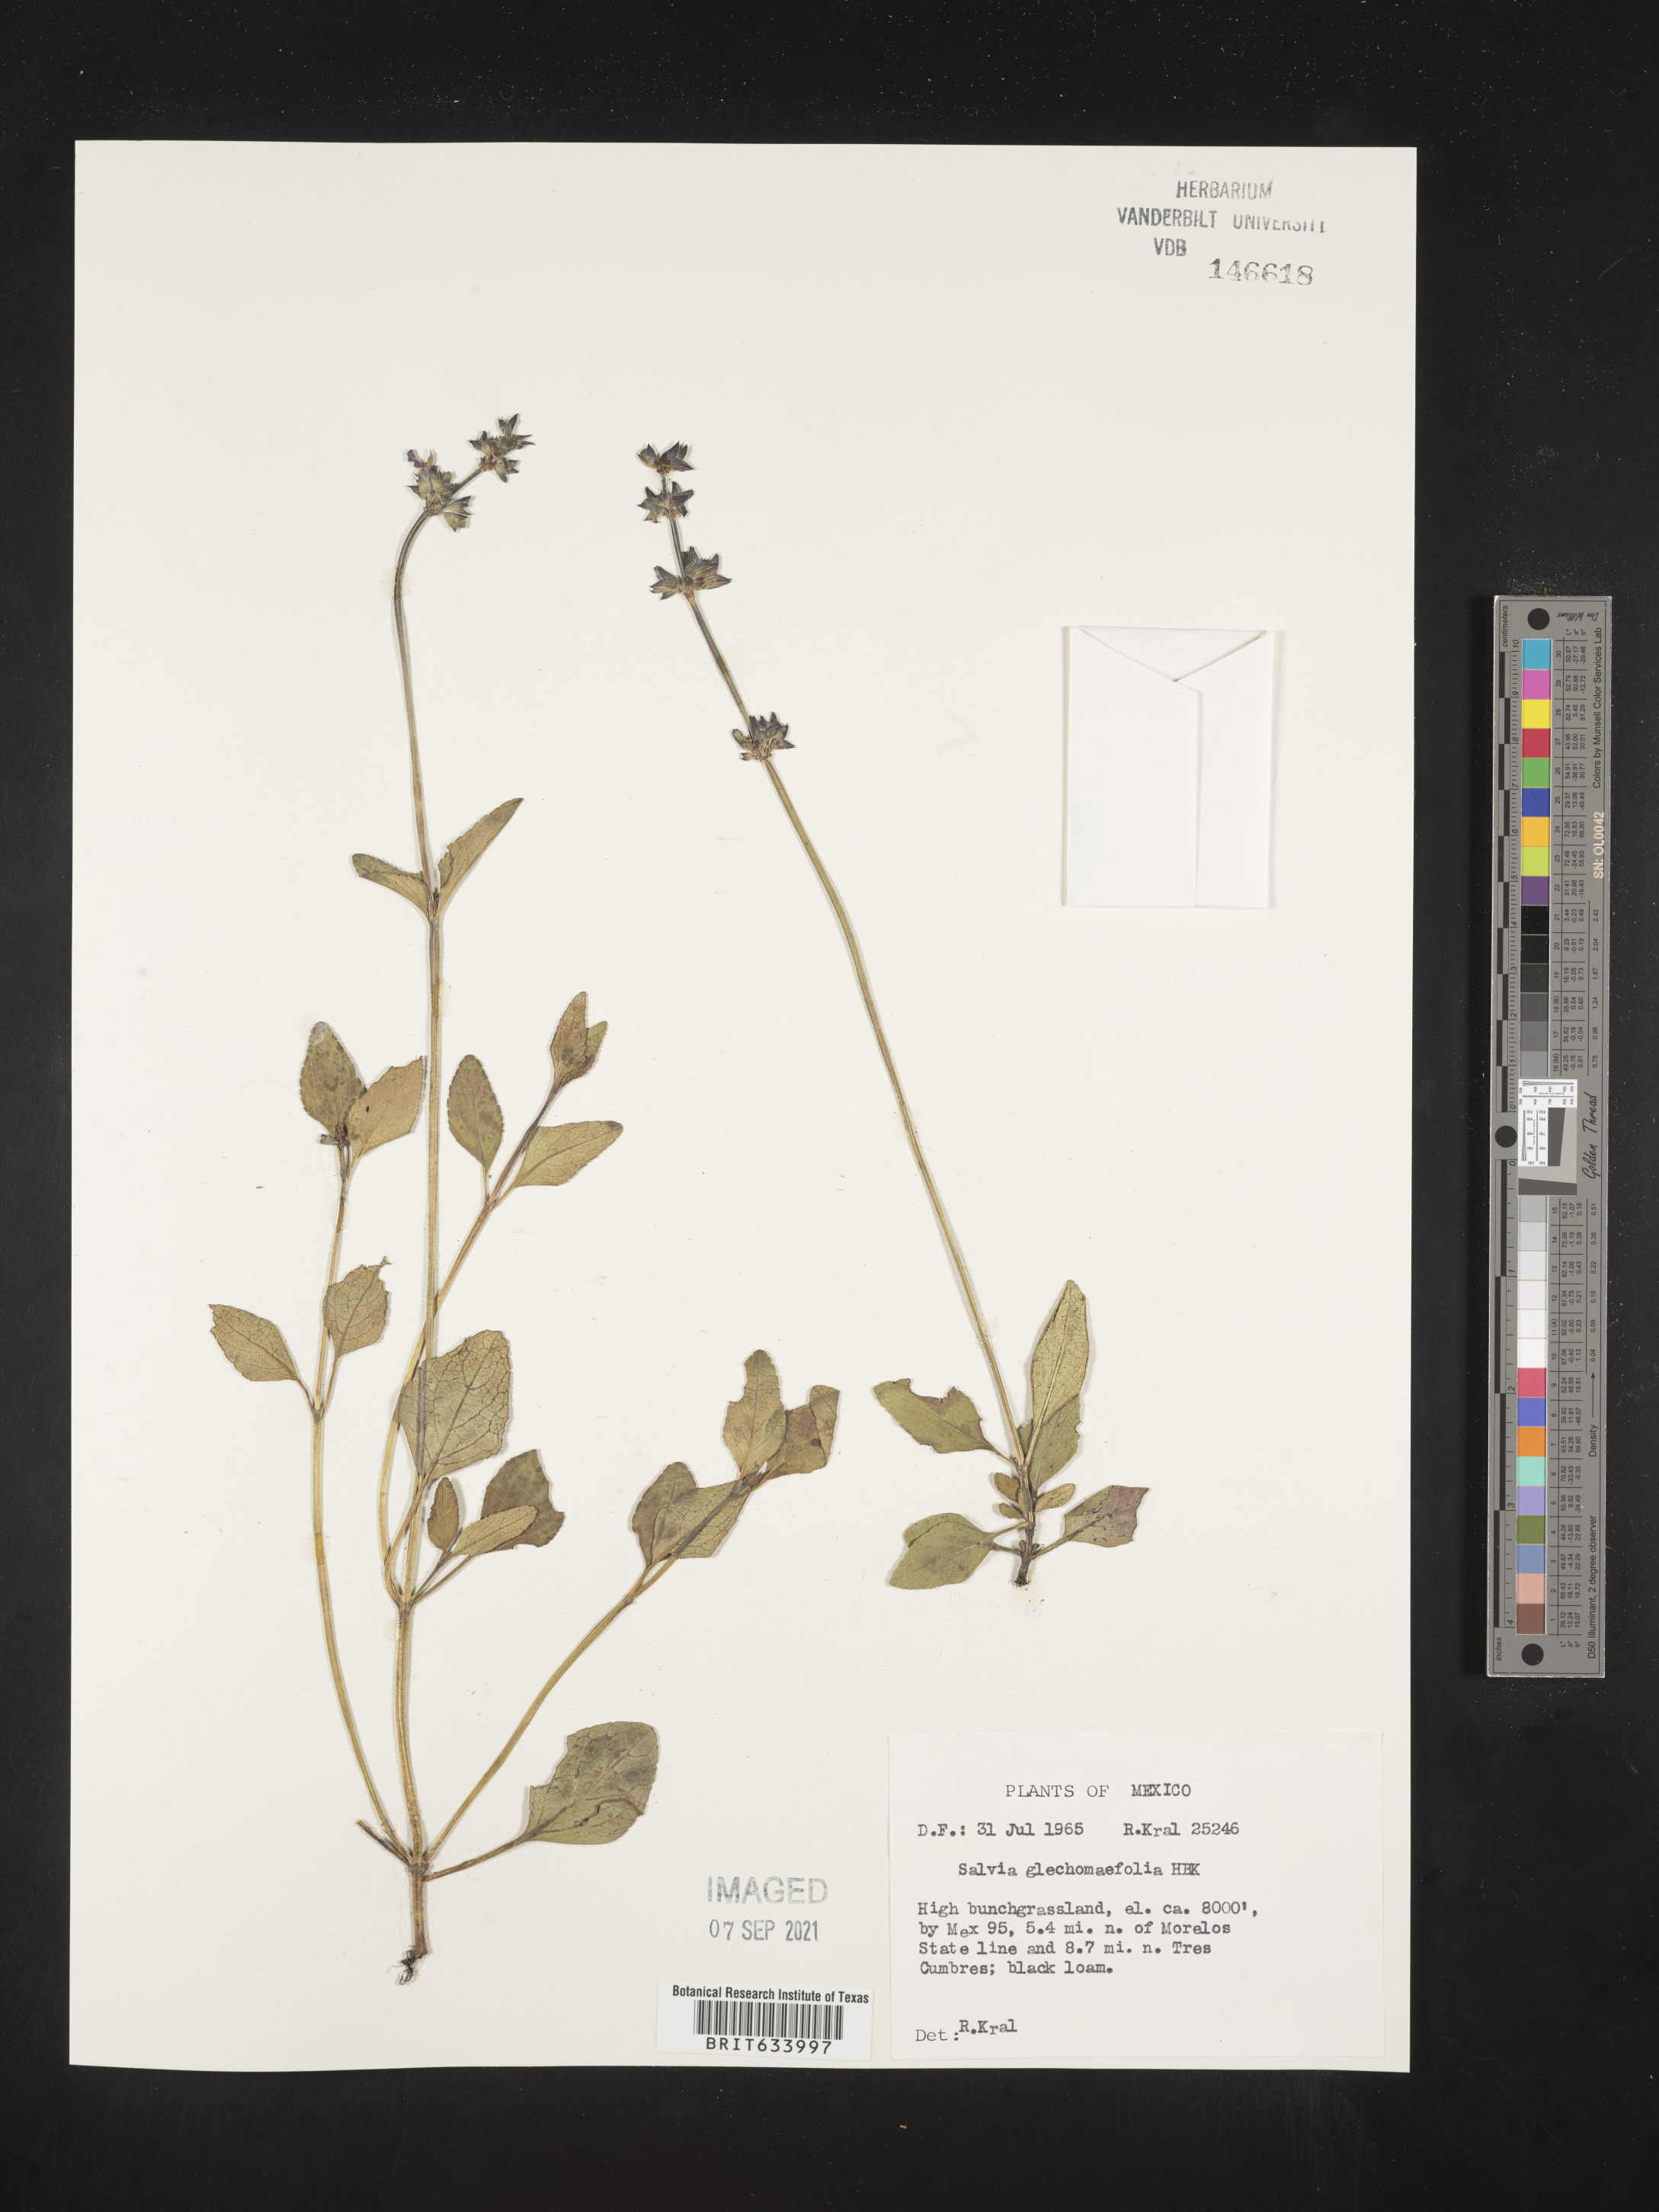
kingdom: Plantae
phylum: Tracheophyta
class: Magnoliopsida
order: Lamiales
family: Lamiaceae
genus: Salvia
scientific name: Salvia
